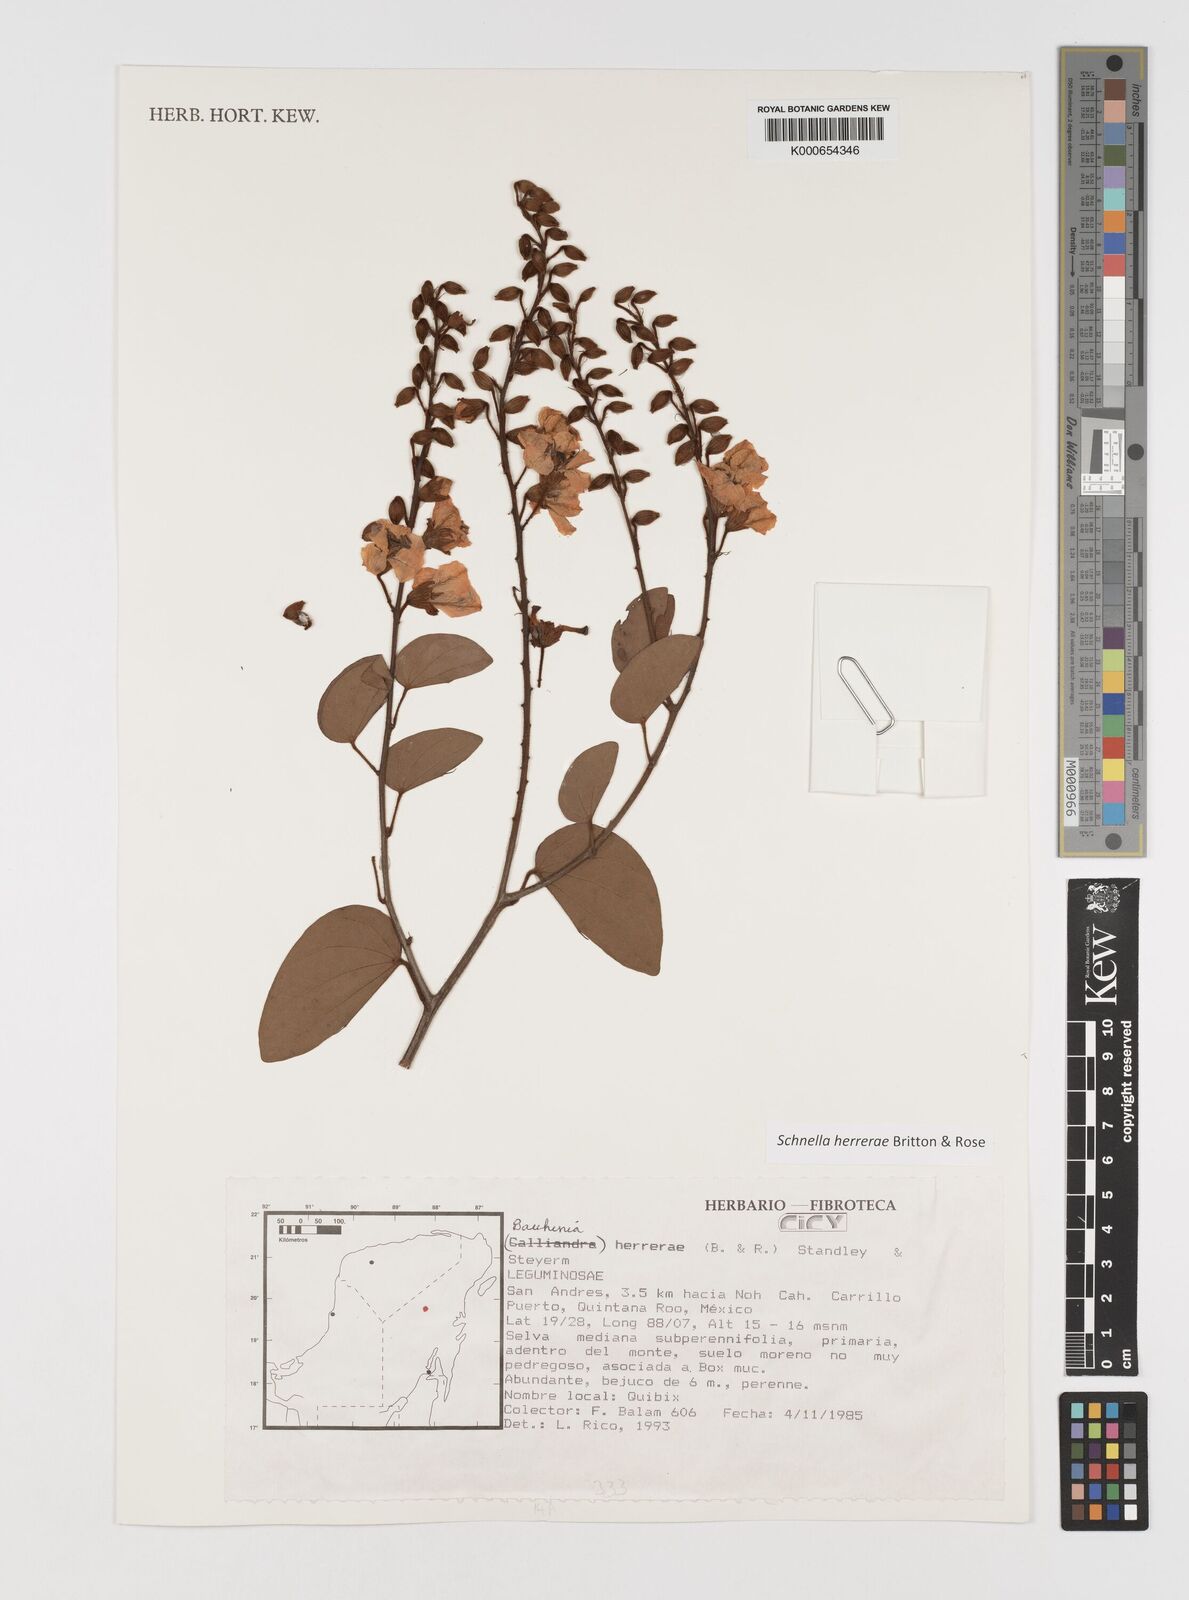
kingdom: Plantae
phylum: Tracheophyta
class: Magnoliopsida
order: Fabales
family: Fabaceae
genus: Schnella
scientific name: Schnella herrerae
